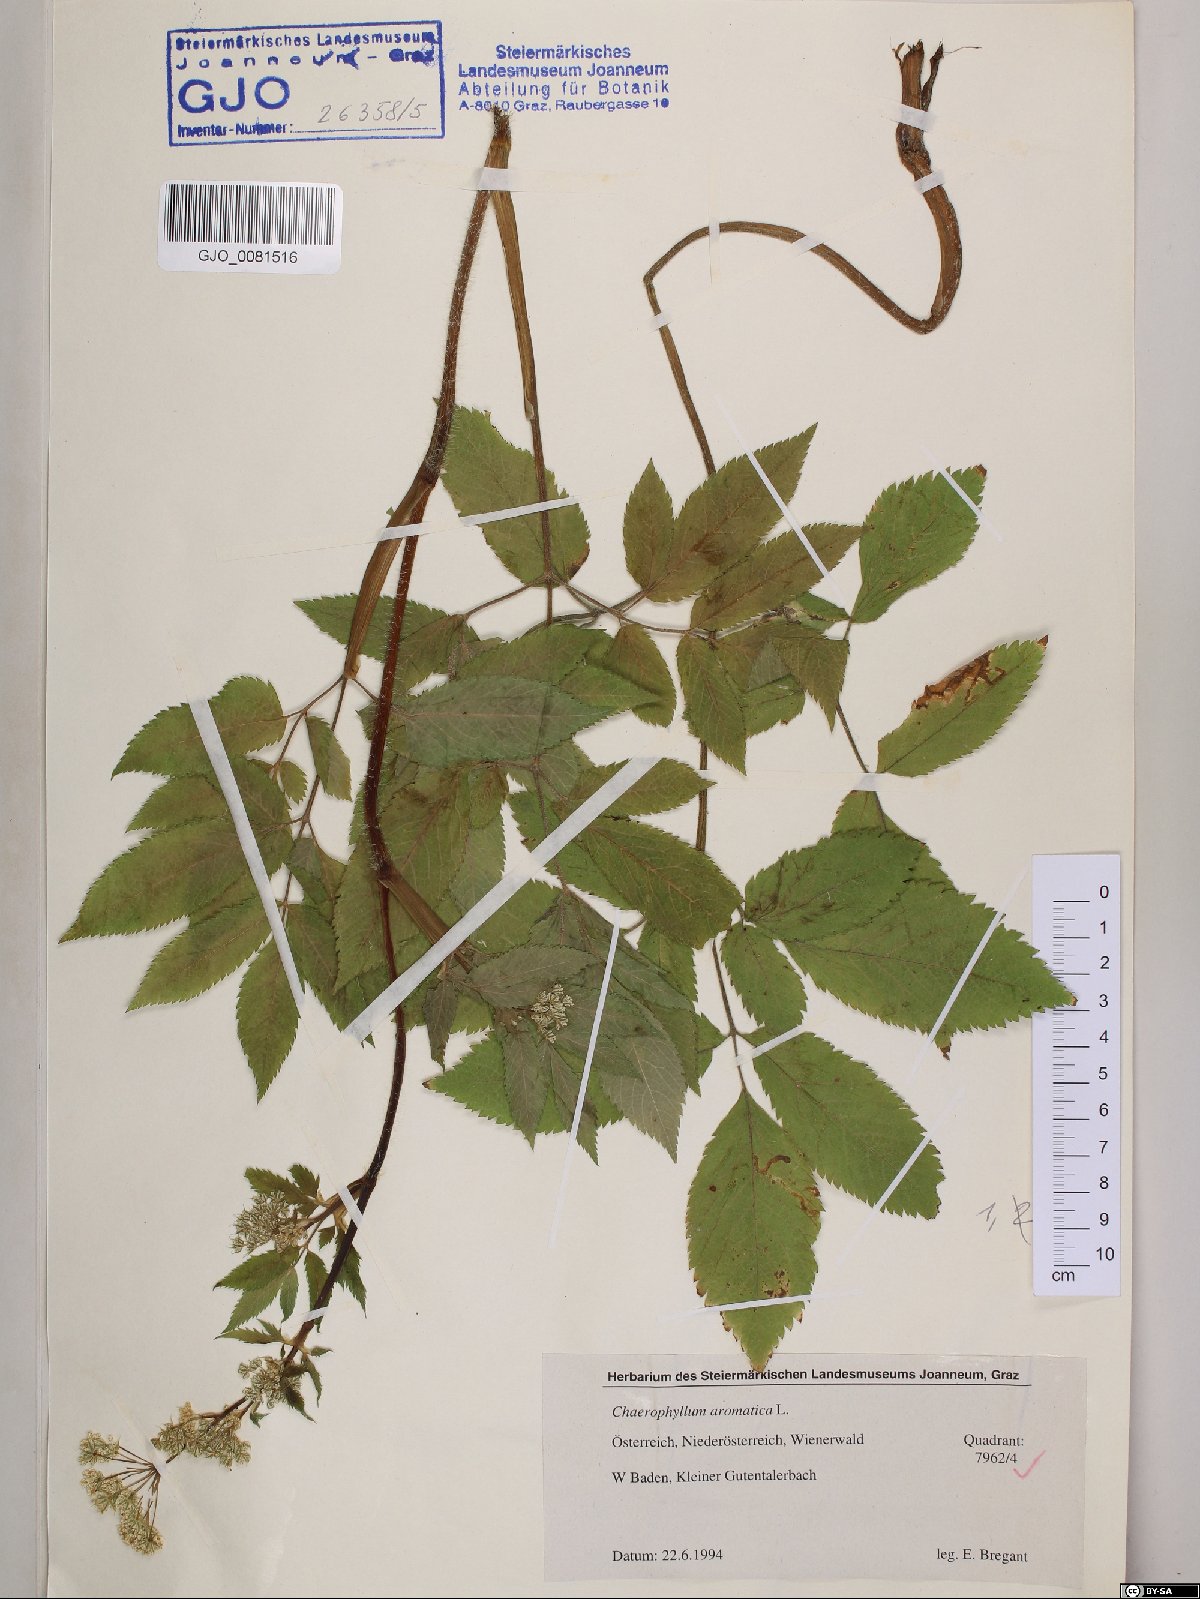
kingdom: Plantae
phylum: Tracheophyta
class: Magnoliopsida
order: Apiales
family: Apiaceae
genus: Chaerophyllum
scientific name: Chaerophyllum aromaticum
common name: Broadleaf chervil
